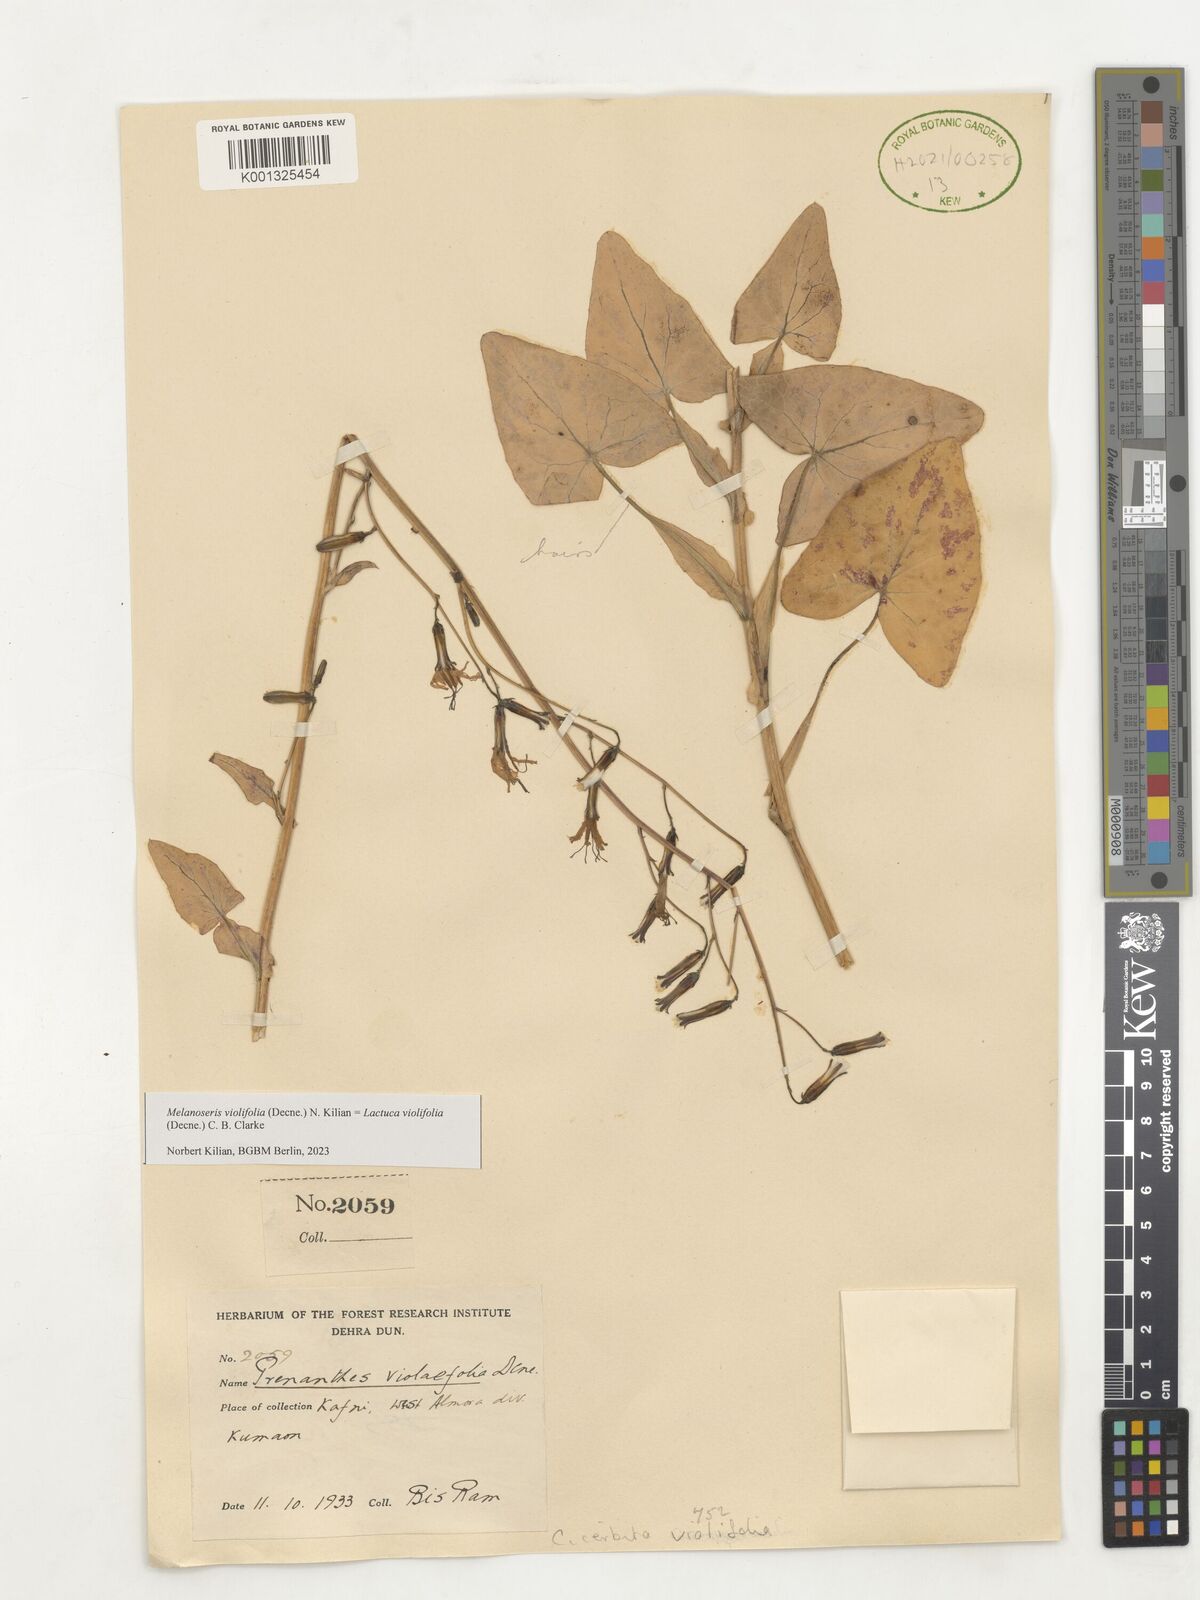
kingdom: Plantae
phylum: Tracheophyta
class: Magnoliopsida
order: Asterales
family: Asteraceae
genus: Melanoseris
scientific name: Melanoseris violifolia
